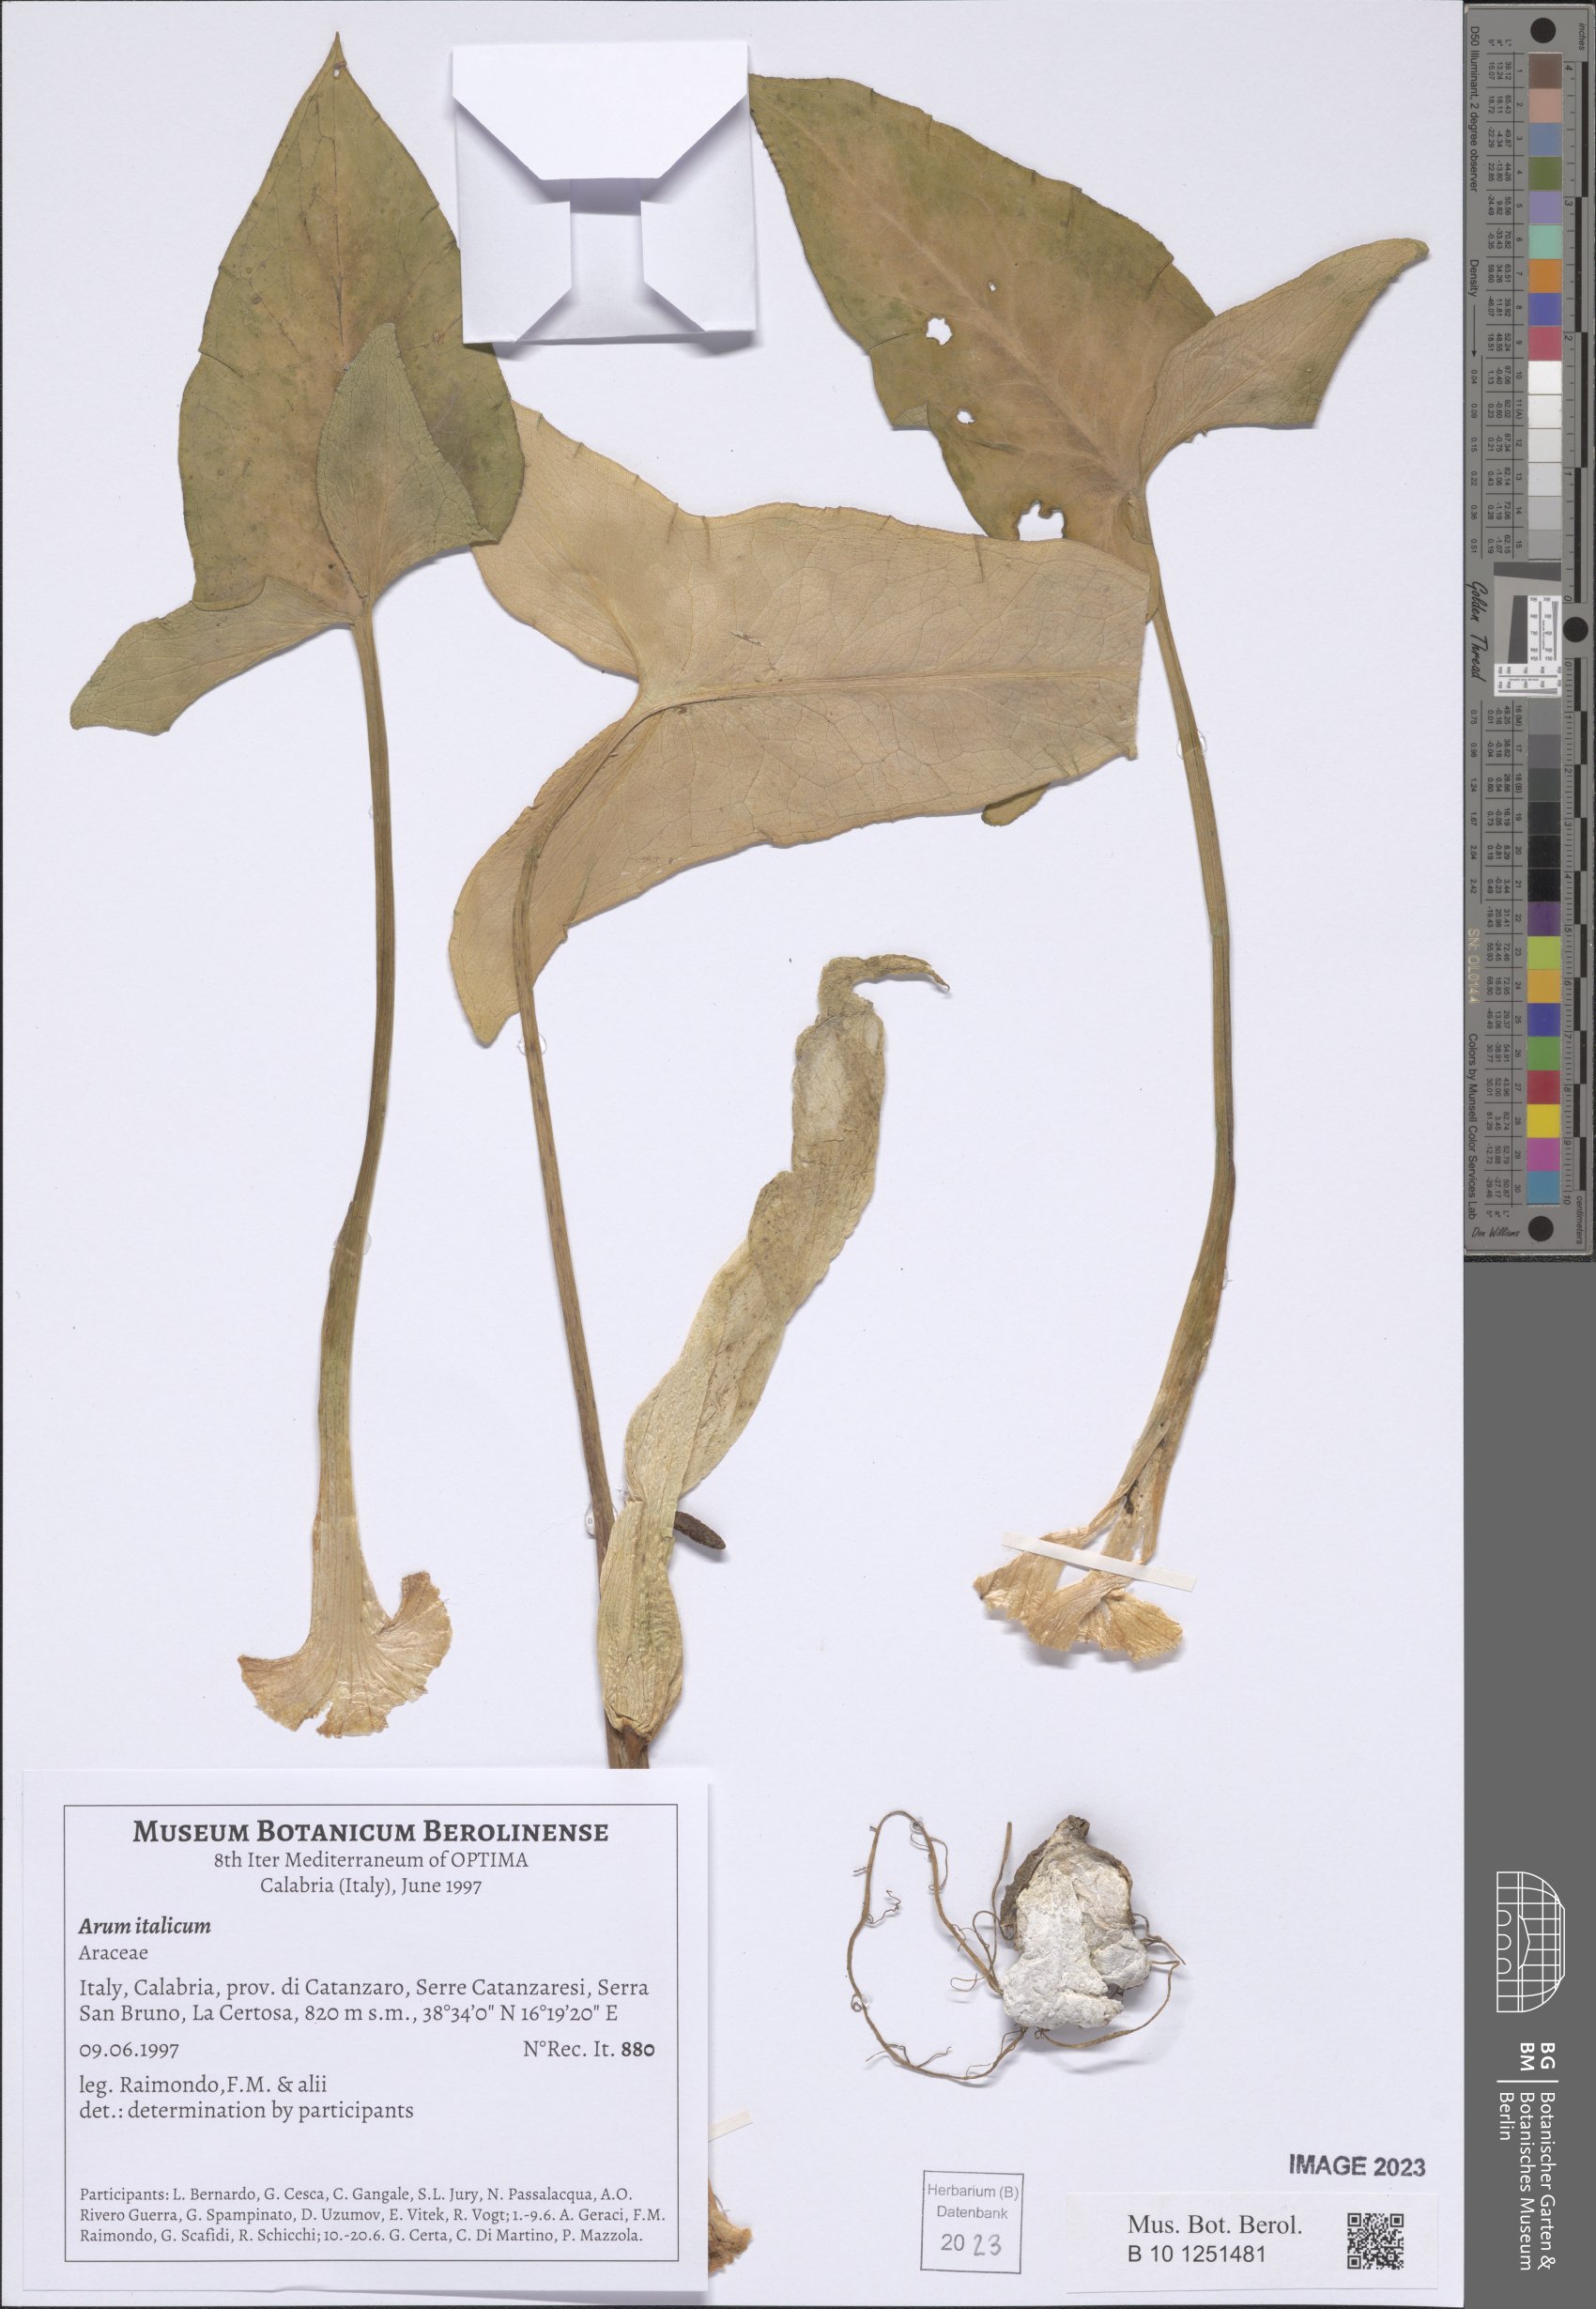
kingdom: Plantae
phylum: Tracheophyta
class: Liliopsida
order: Alismatales
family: Araceae
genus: Arum
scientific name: Arum italicum
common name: Italian lords-and-ladies
